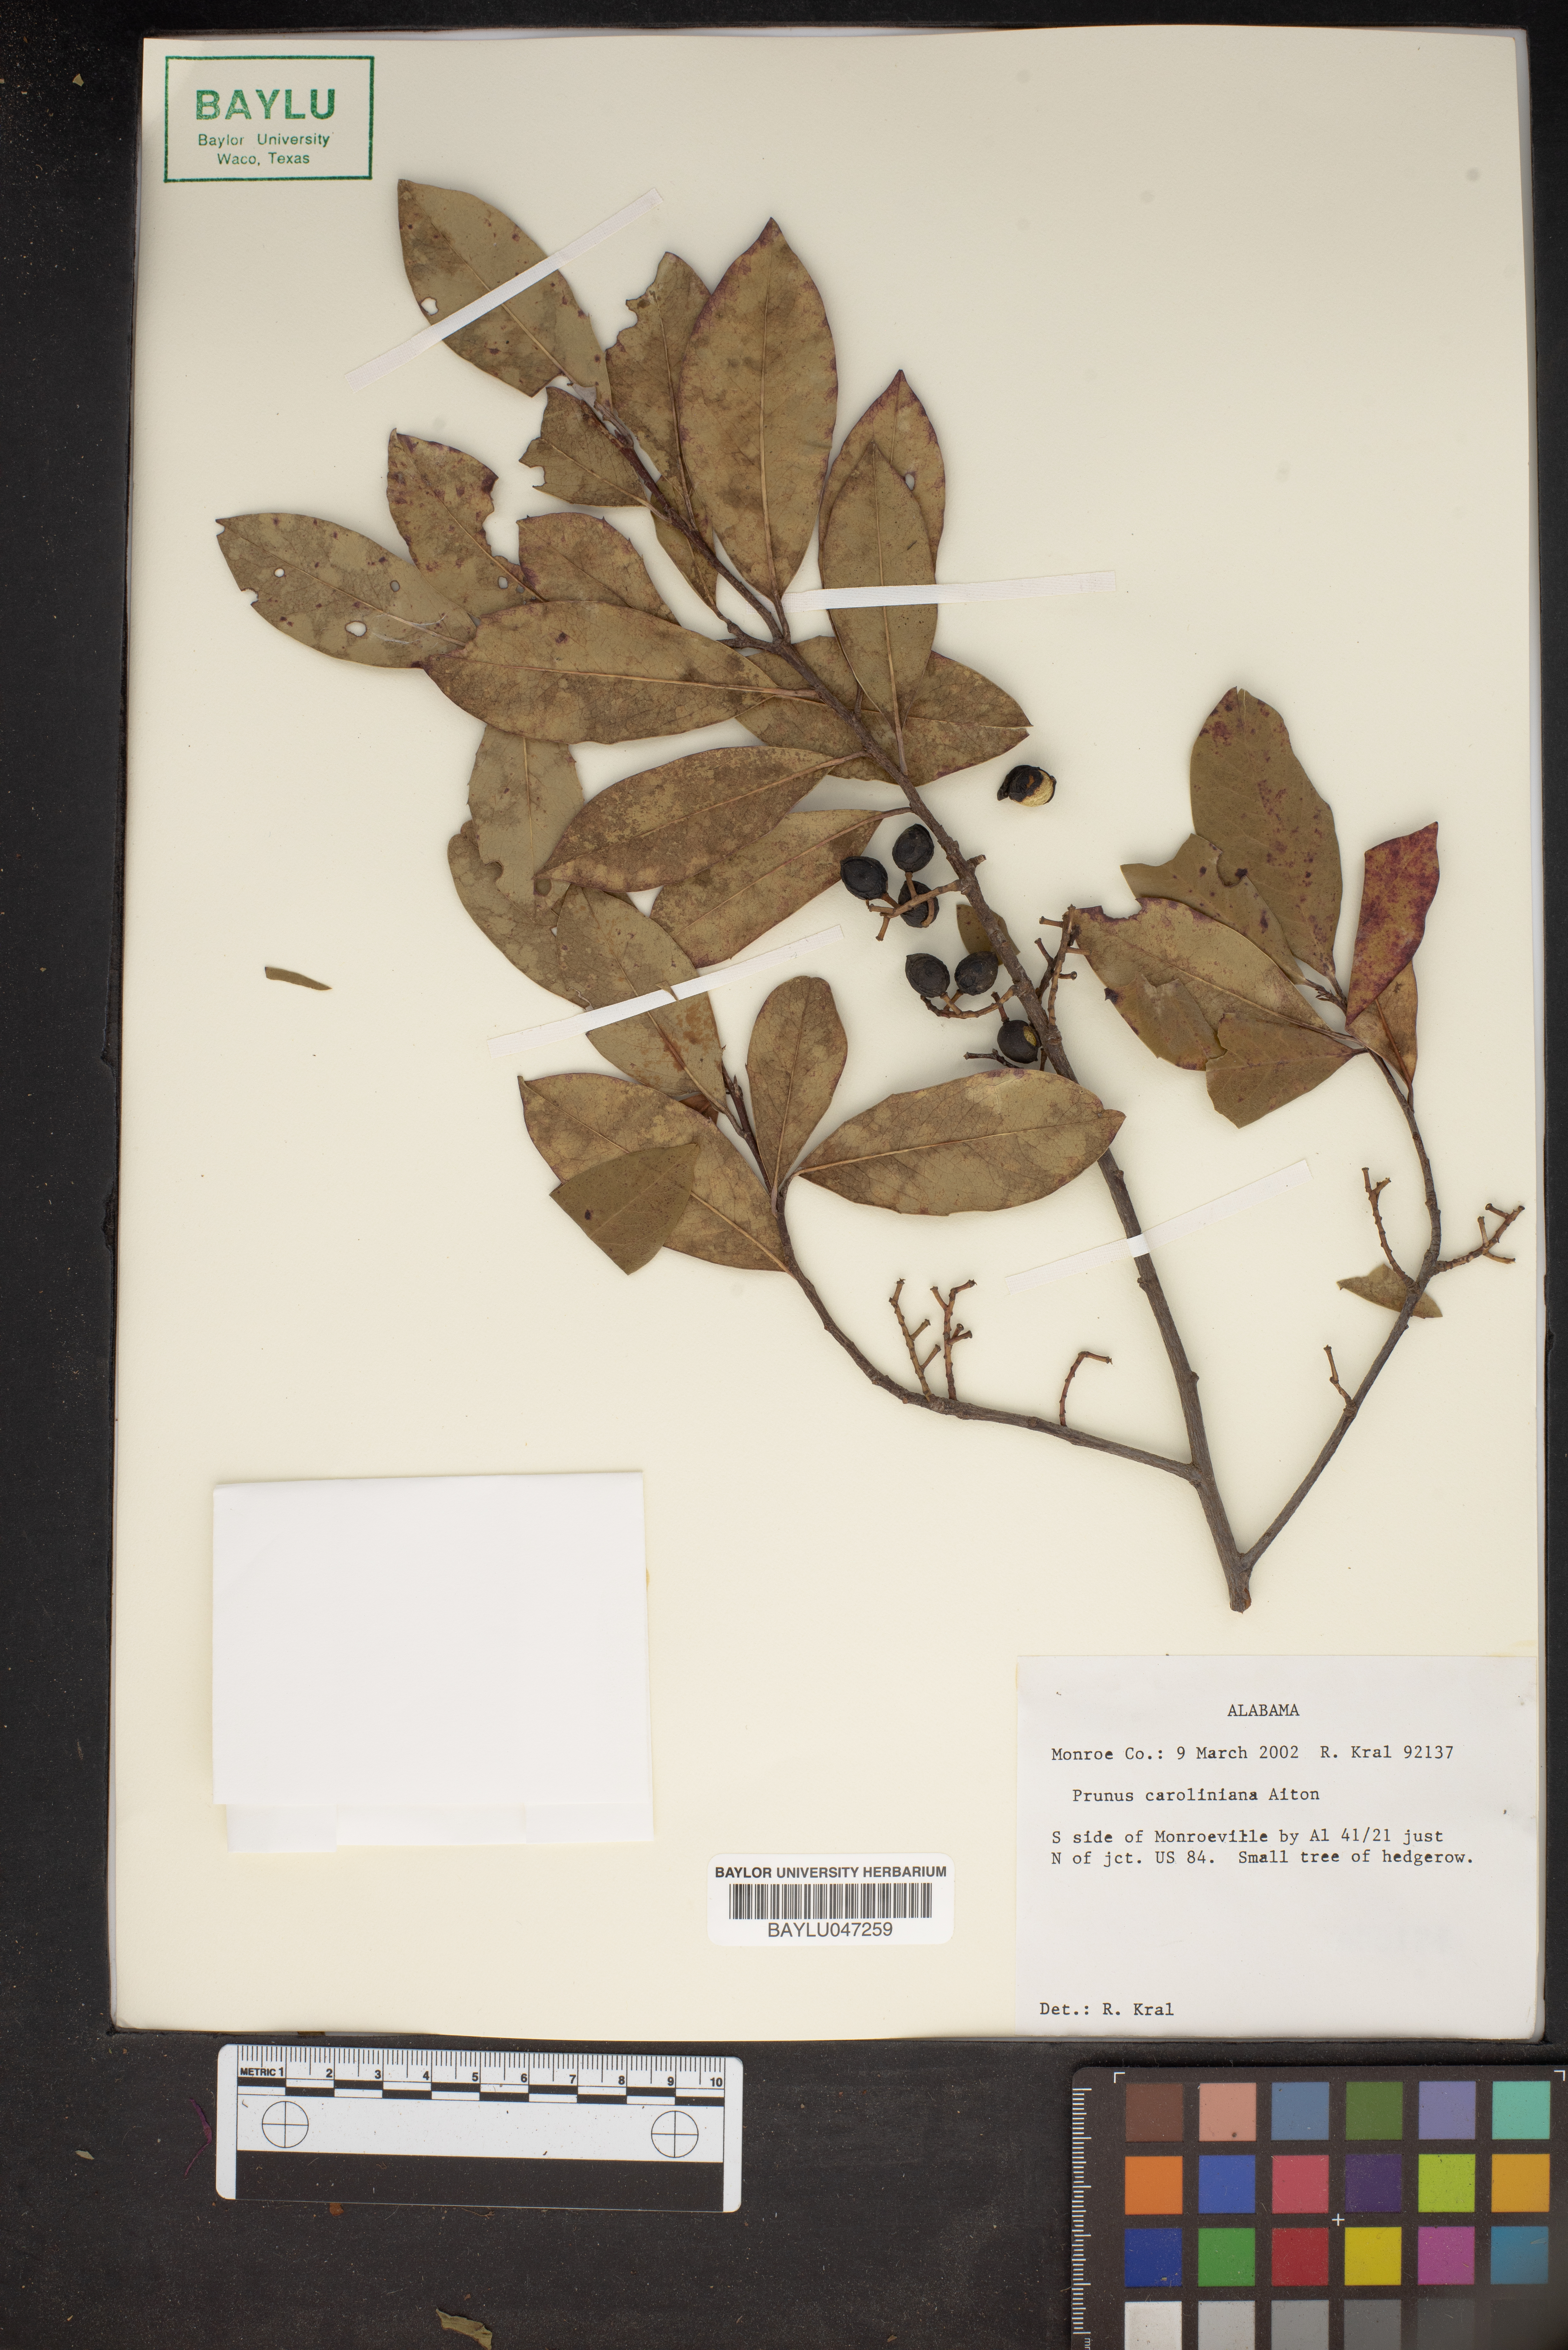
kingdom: Plantae
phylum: Tracheophyta
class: Magnoliopsida
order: Rosales
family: Rosaceae
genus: Prunus
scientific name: Prunus caroliniana
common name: Carolina laurel cherry
